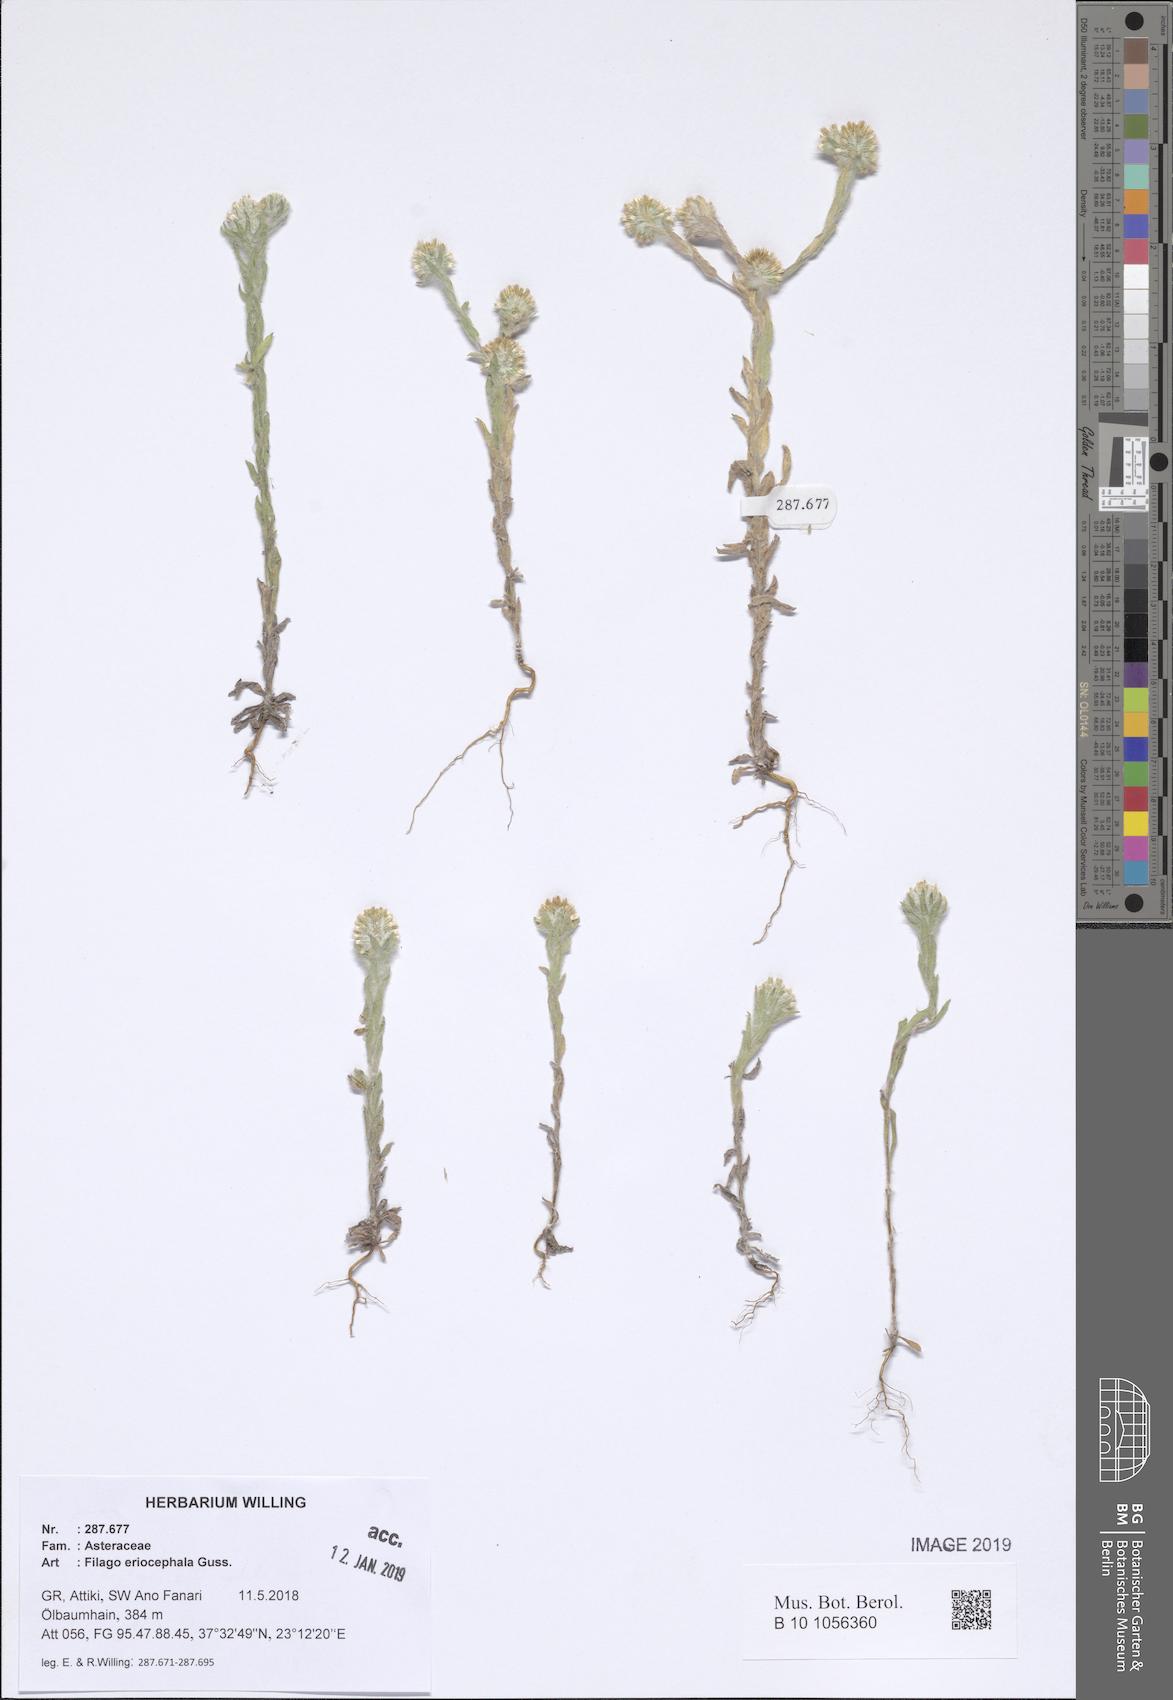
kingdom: Plantae
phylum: Tracheophyta
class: Magnoliopsida
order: Asterales
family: Asteraceae
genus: Filago
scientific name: Filago eriocephala
